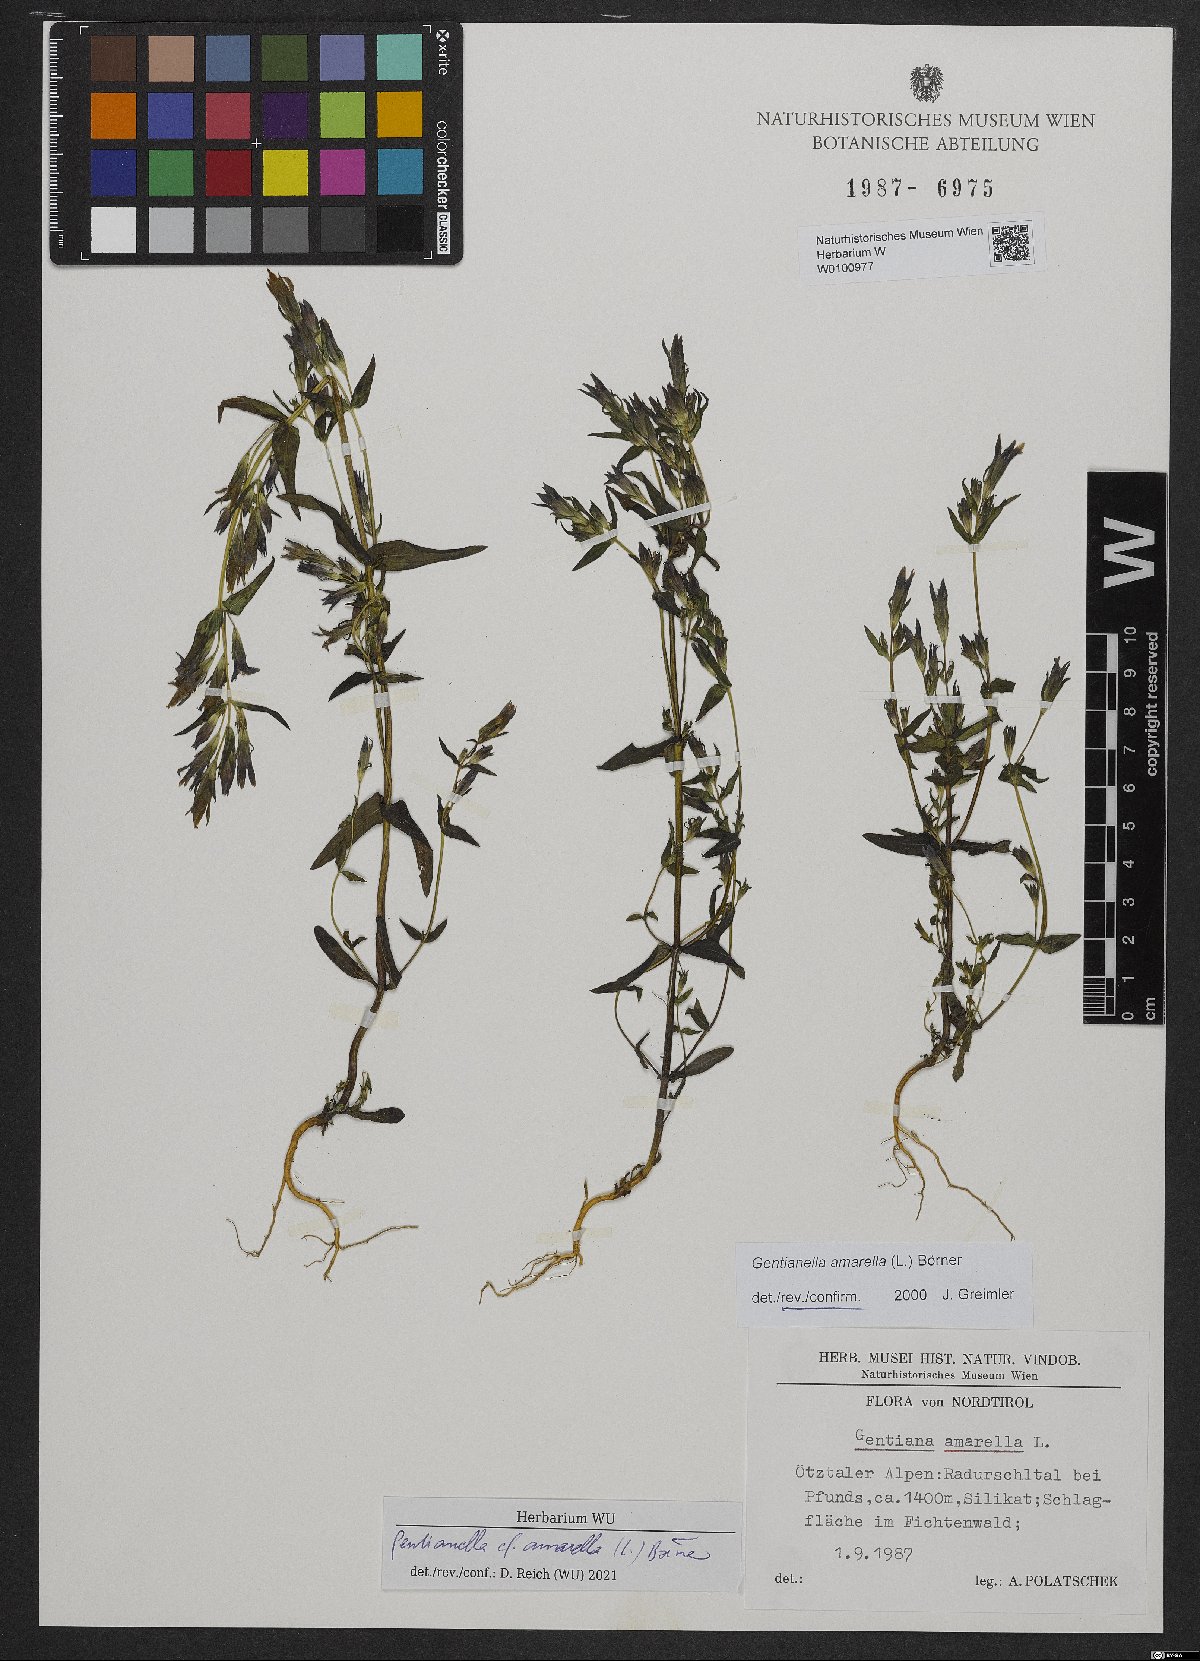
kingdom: Plantae
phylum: Tracheophyta
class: Magnoliopsida
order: Gentianales
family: Gentianaceae
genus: Gentianella
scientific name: Gentianella amarella
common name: Autumn gentian
